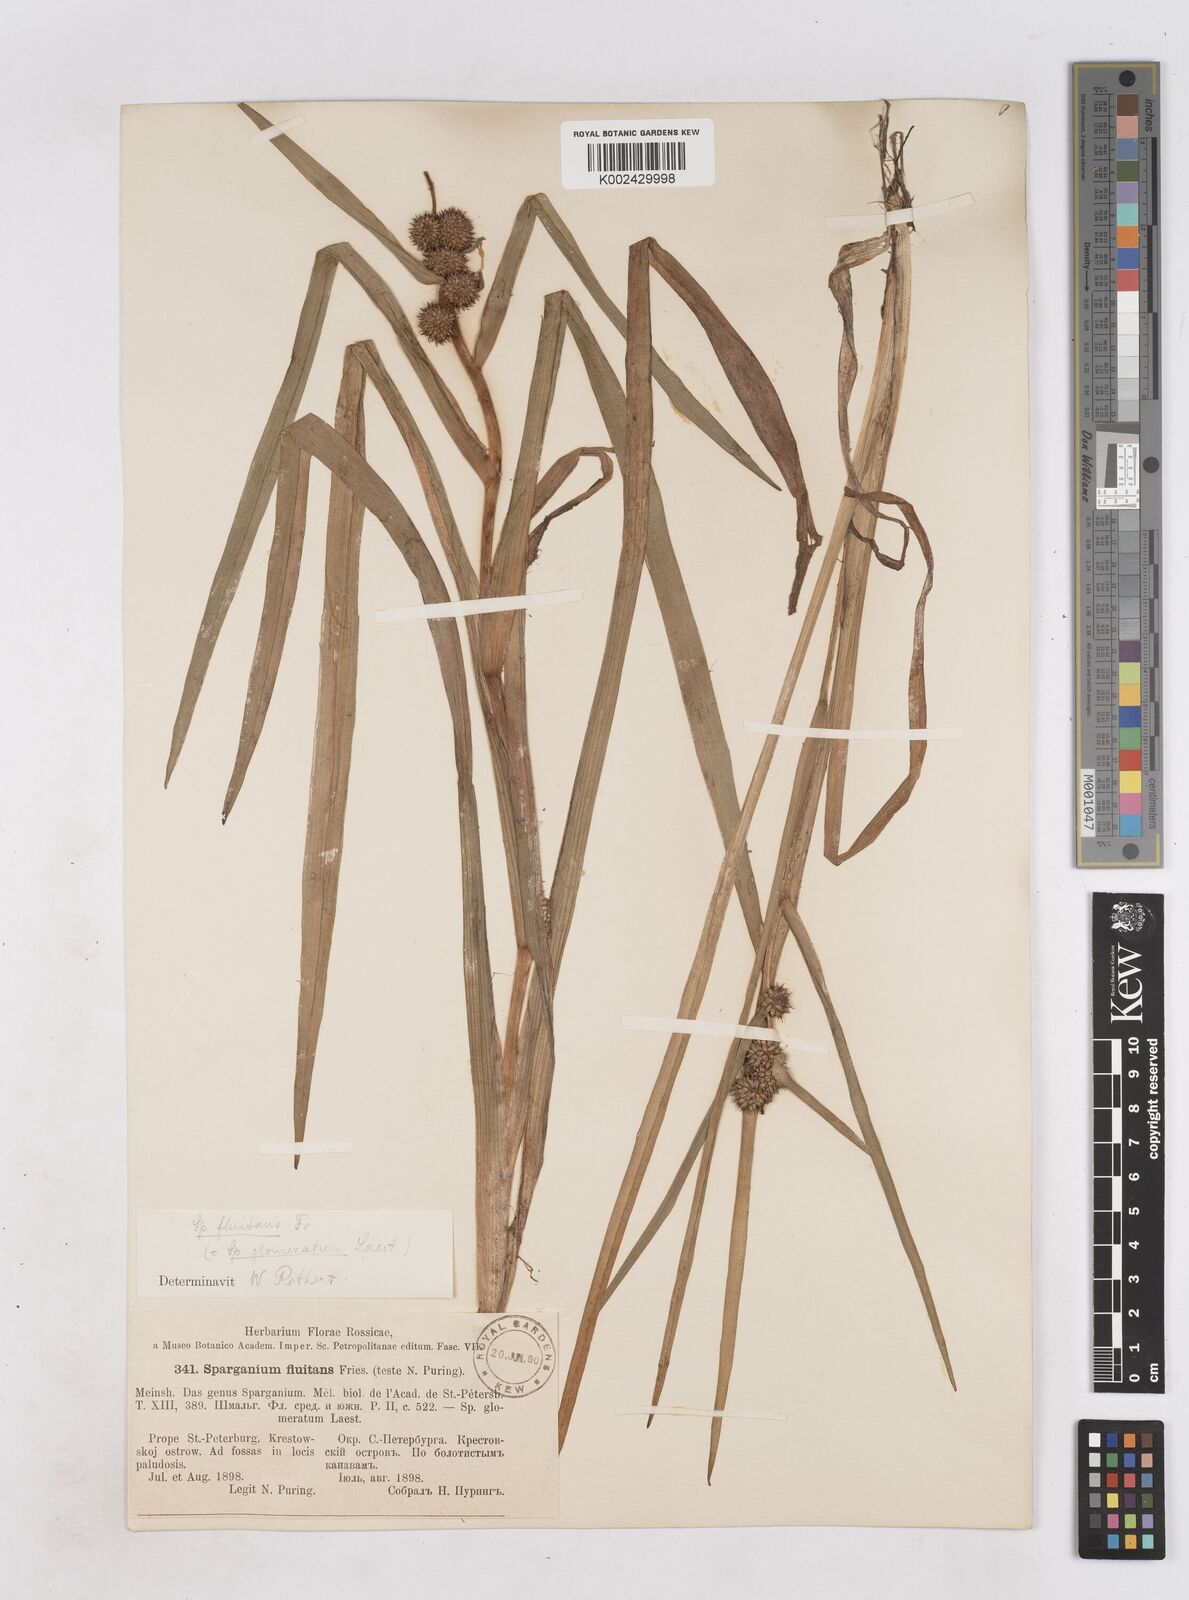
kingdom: Plantae
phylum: Tracheophyta
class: Liliopsida
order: Poales
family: Typhaceae
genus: Sparganium
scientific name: Sparganium angustifolium
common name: Floating bur-reed
